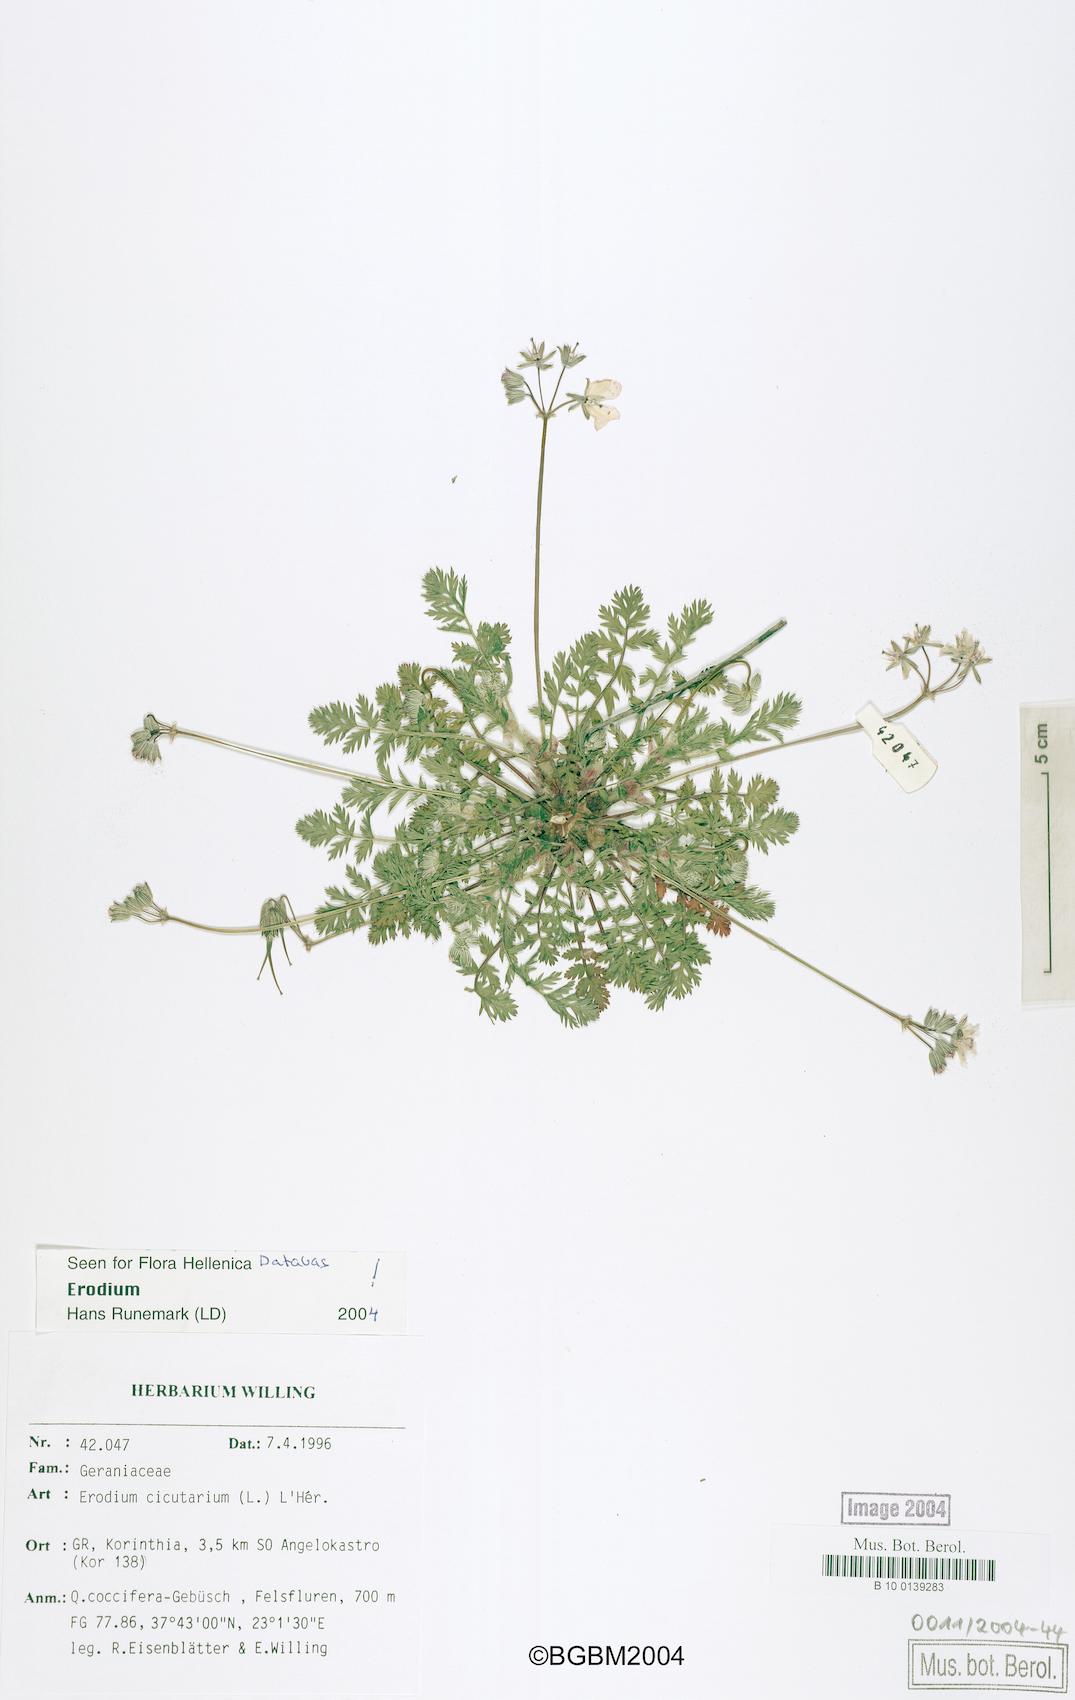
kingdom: Plantae
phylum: Tracheophyta
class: Magnoliopsida
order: Geraniales
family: Geraniaceae
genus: Erodium
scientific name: Erodium cicutarium
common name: Common stork's-bill
